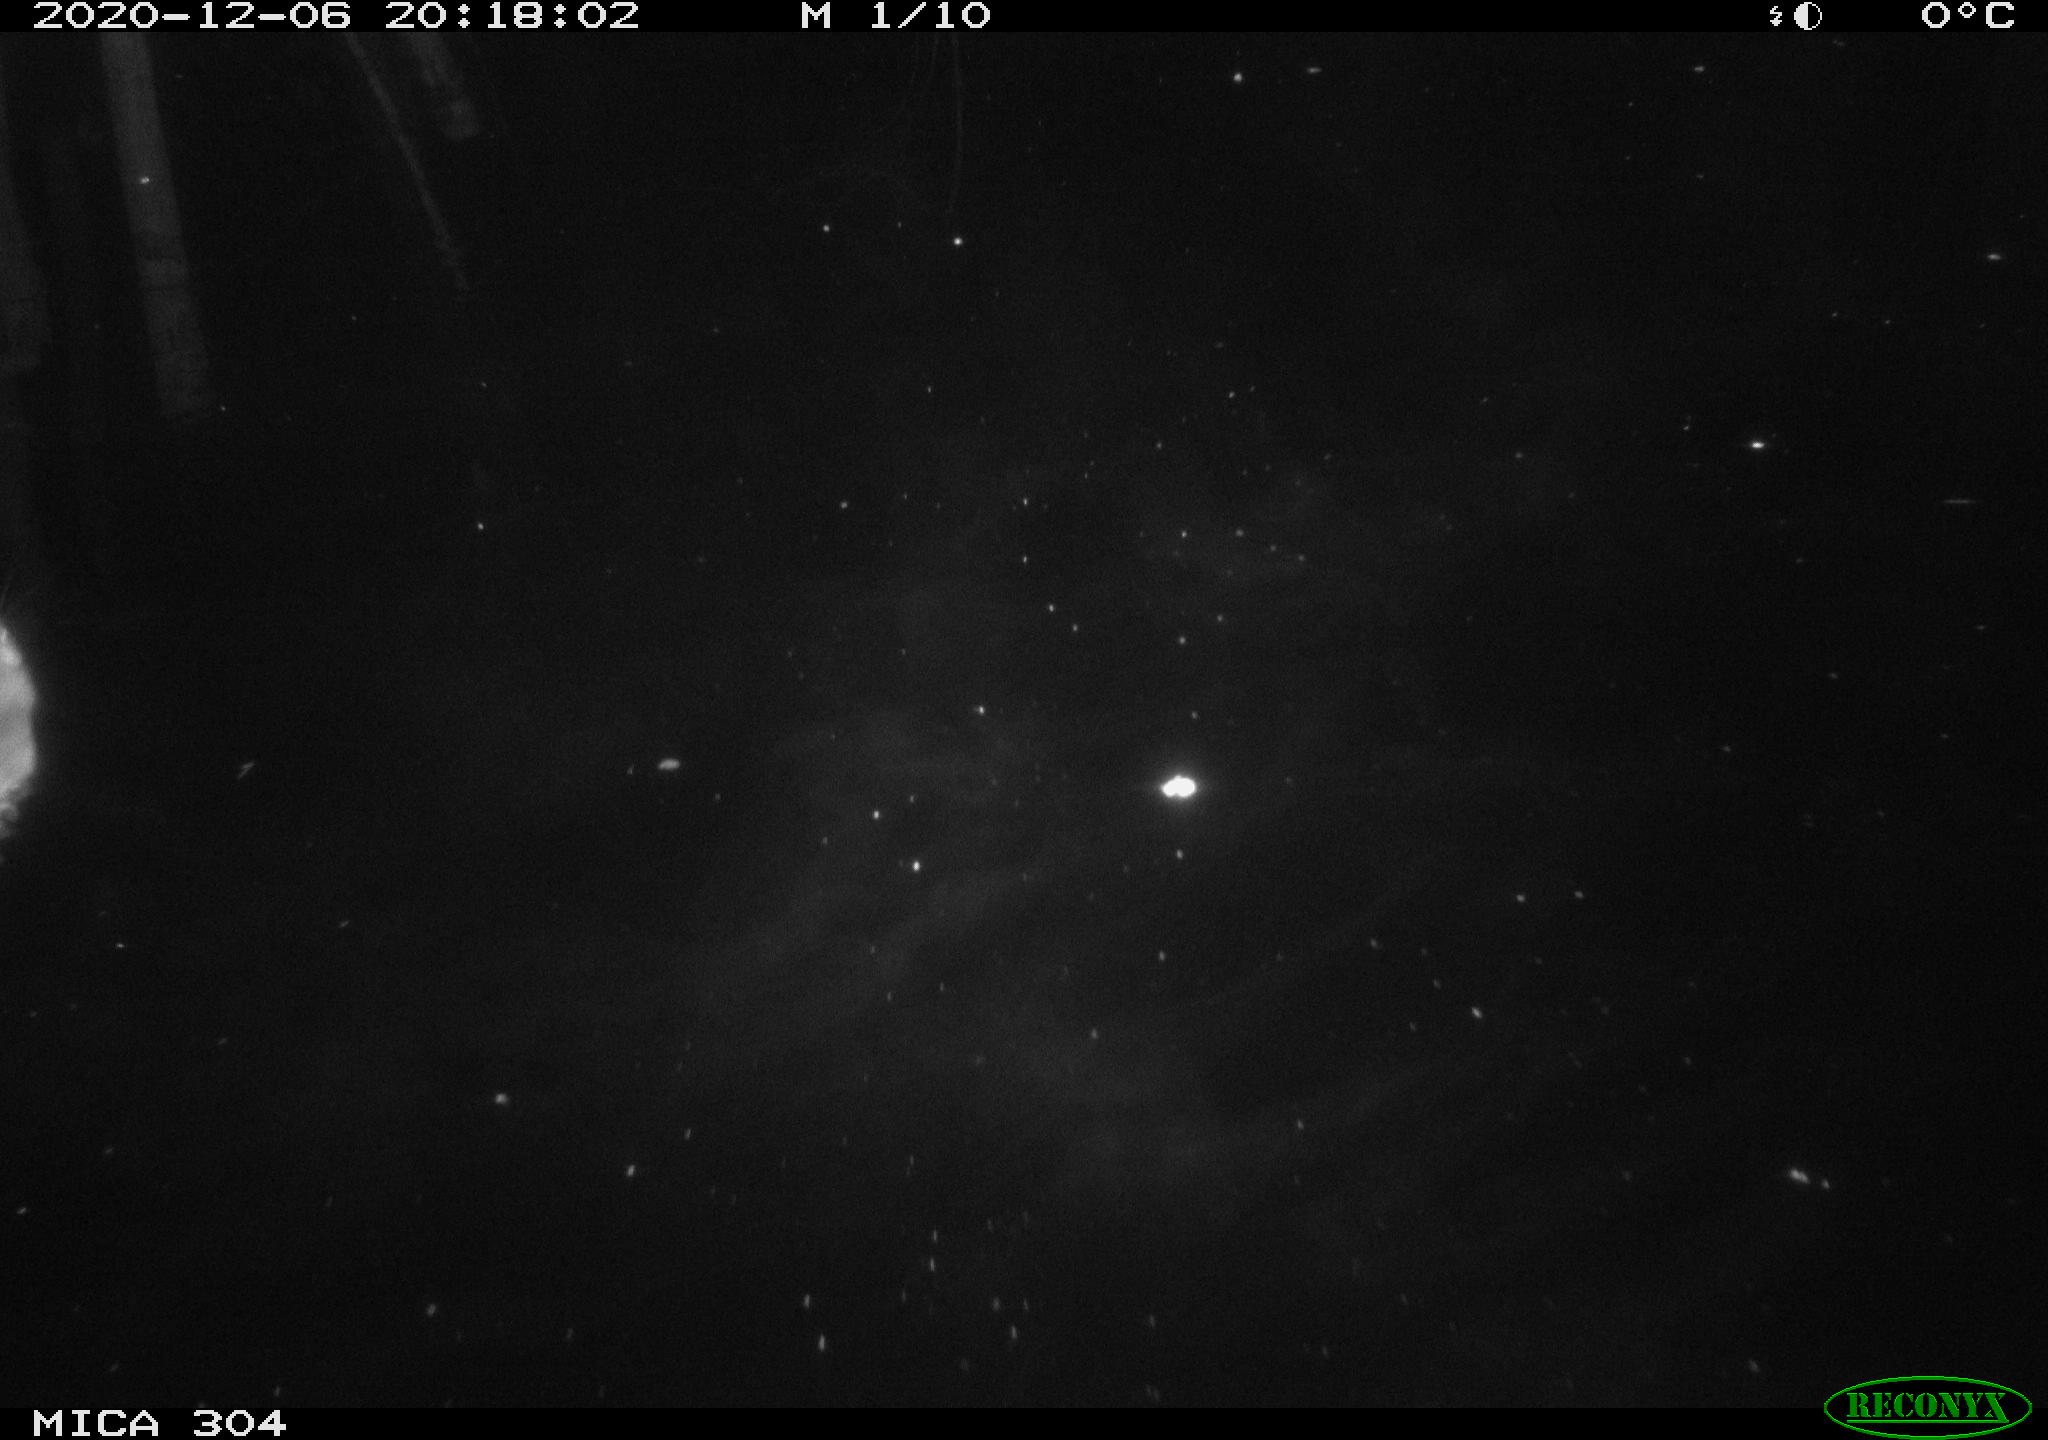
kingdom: Animalia
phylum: Chordata
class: Mammalia
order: Rodentia
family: Cricetidae
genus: Ondatra
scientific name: Ondatra zibethicus
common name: Muskrat
